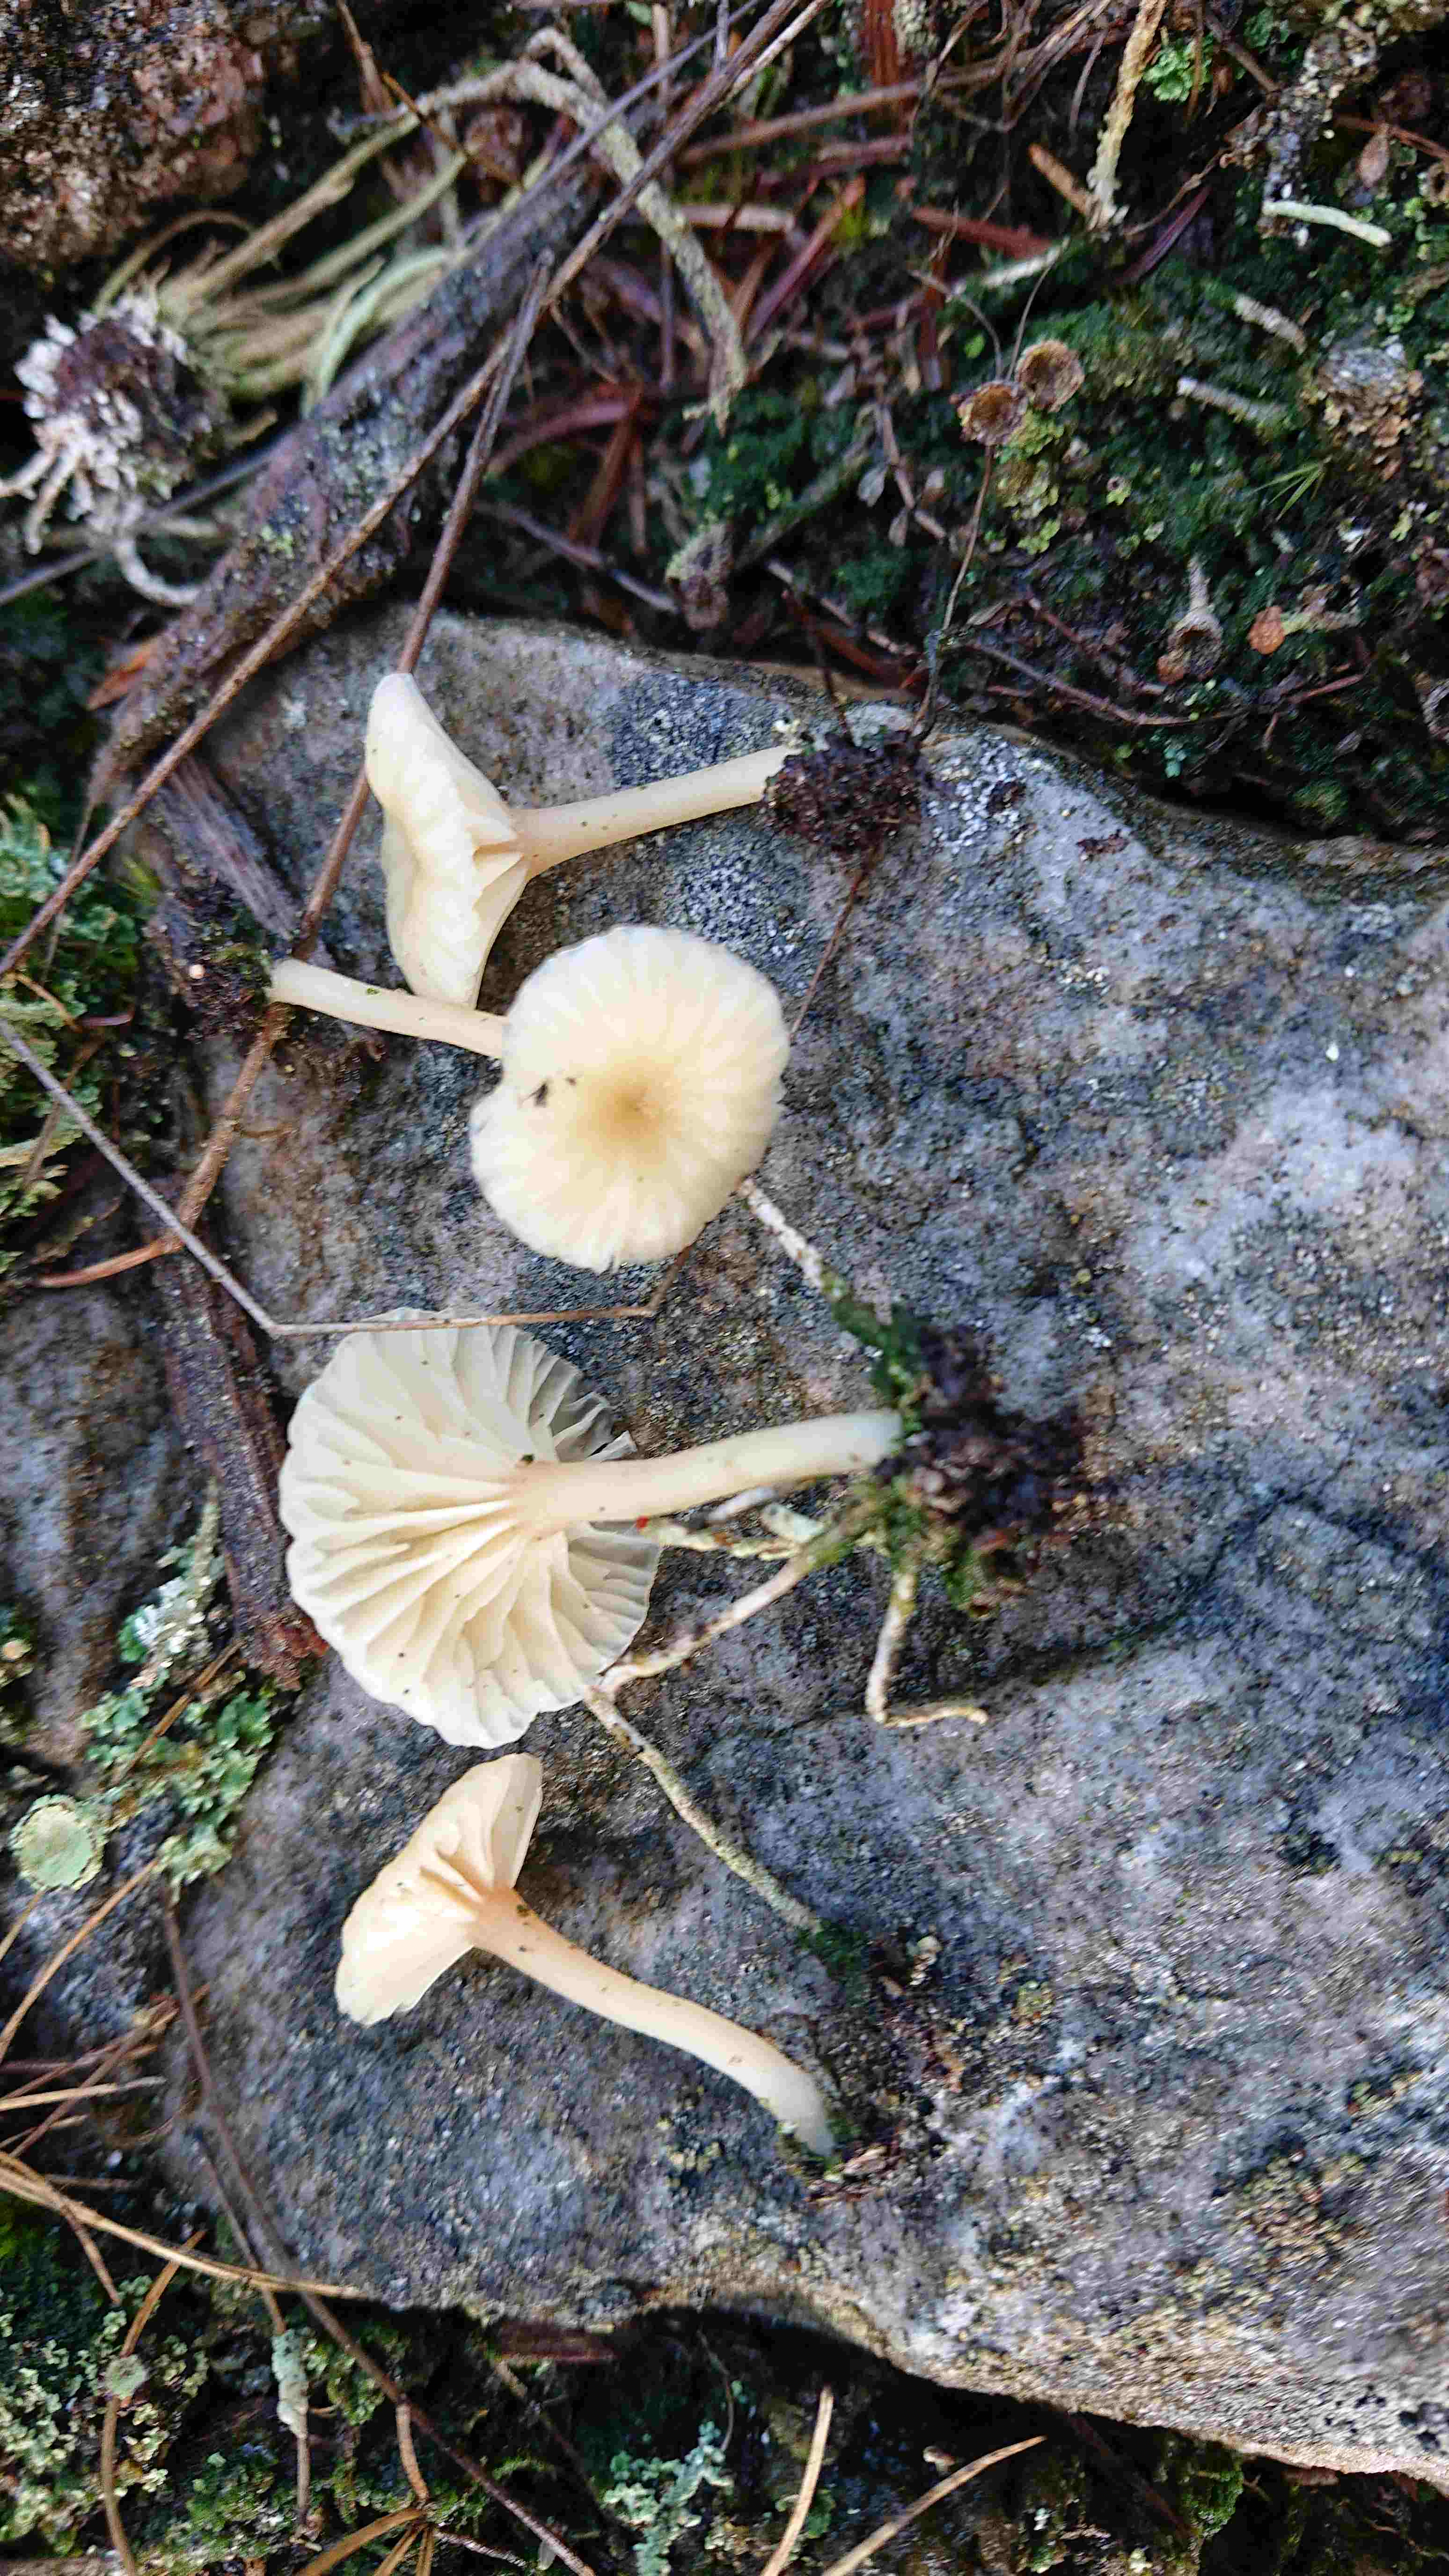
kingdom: Fungi
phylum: Basidiomycota
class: Agaricomycetes
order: Agaricales
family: Hygrophoraceae
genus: Lichenomphalia
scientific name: Lichenomphalia umbellifera
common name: tørve-lavhat
